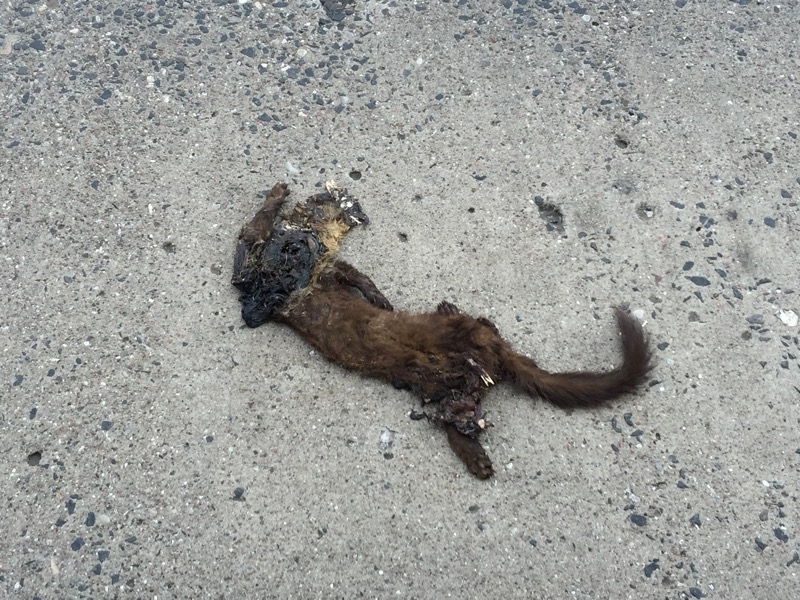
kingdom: Animalia
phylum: Chordata
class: Mammalia
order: Carnivora
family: Mustelidae
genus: Martes
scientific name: Martes martes
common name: European pine marten
